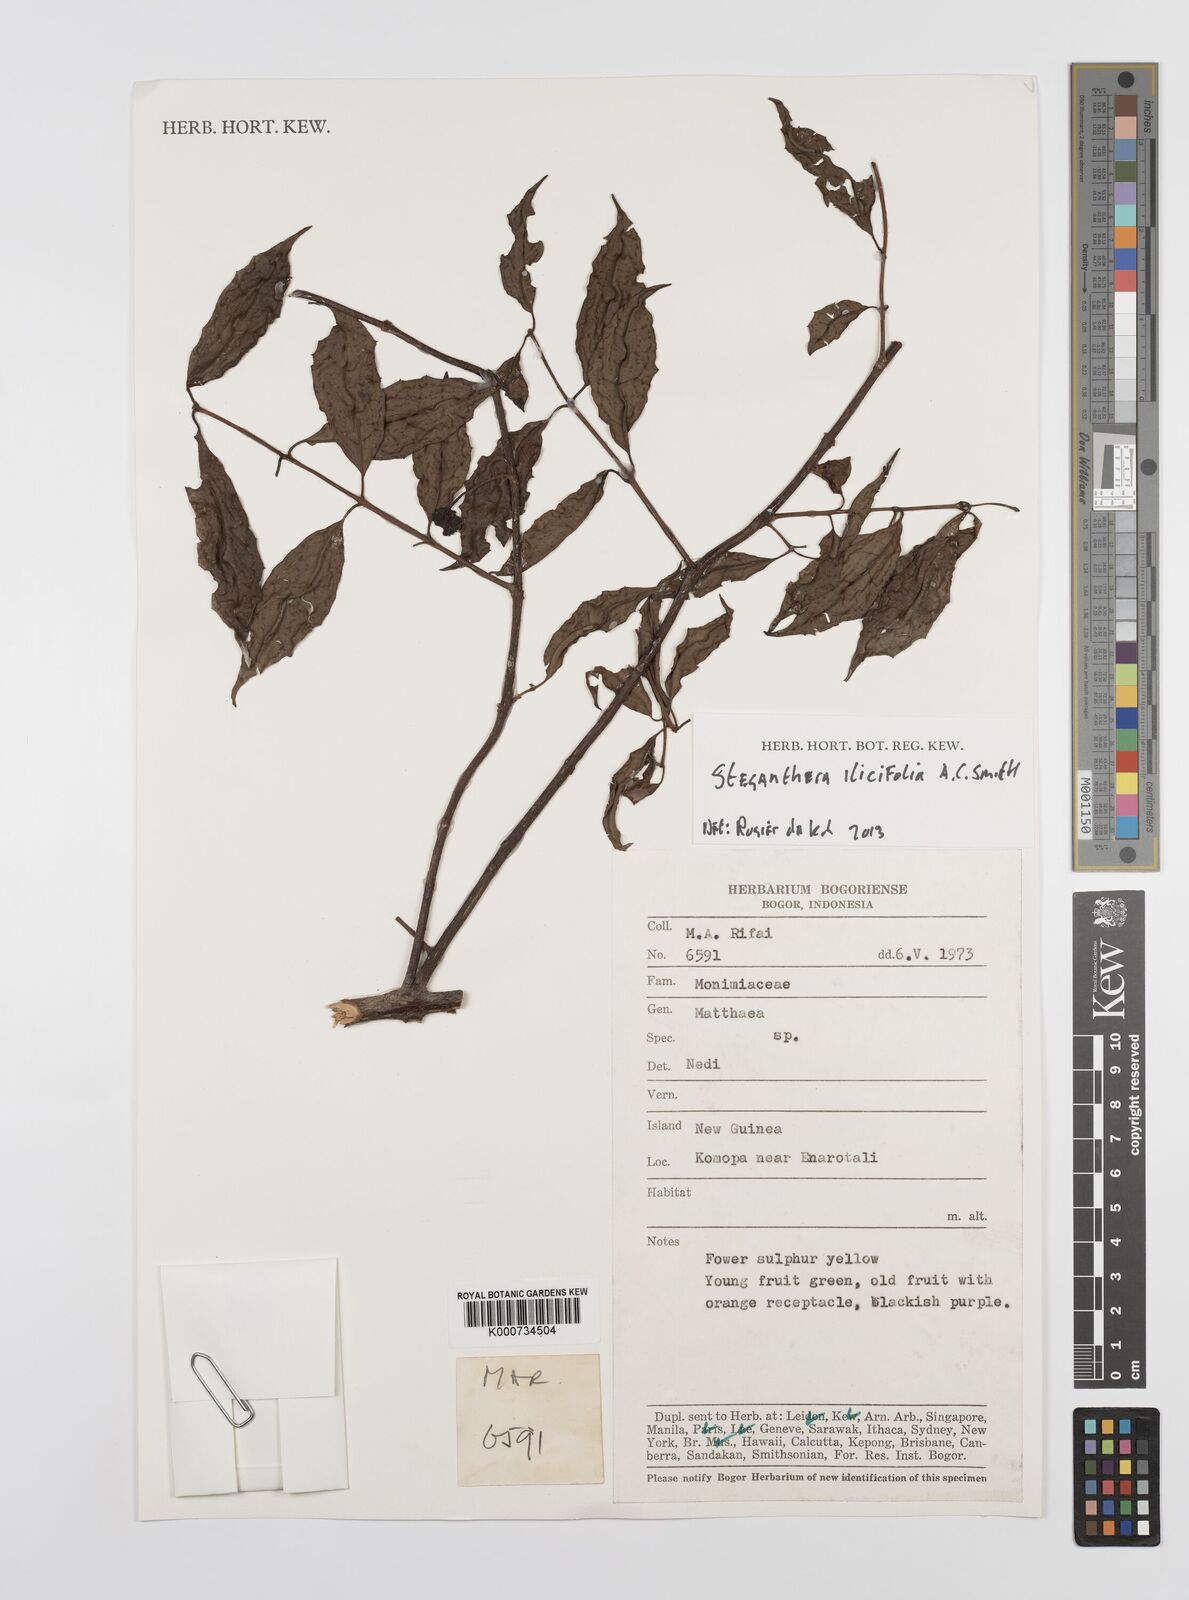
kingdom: Plantae
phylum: Tracheophyta
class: Magnoliopsida
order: Laurales
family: Monimiaceae
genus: Steganthera
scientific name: Steganthera ilicifolia
